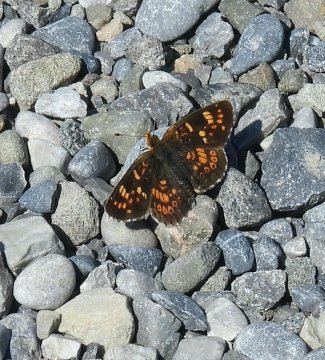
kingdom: Animalia
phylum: Arthropoda
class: Insecta
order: Lepidoptera
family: Nymphalidae
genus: Phyciodes
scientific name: Phyciodes tharos
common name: Field Crescent
